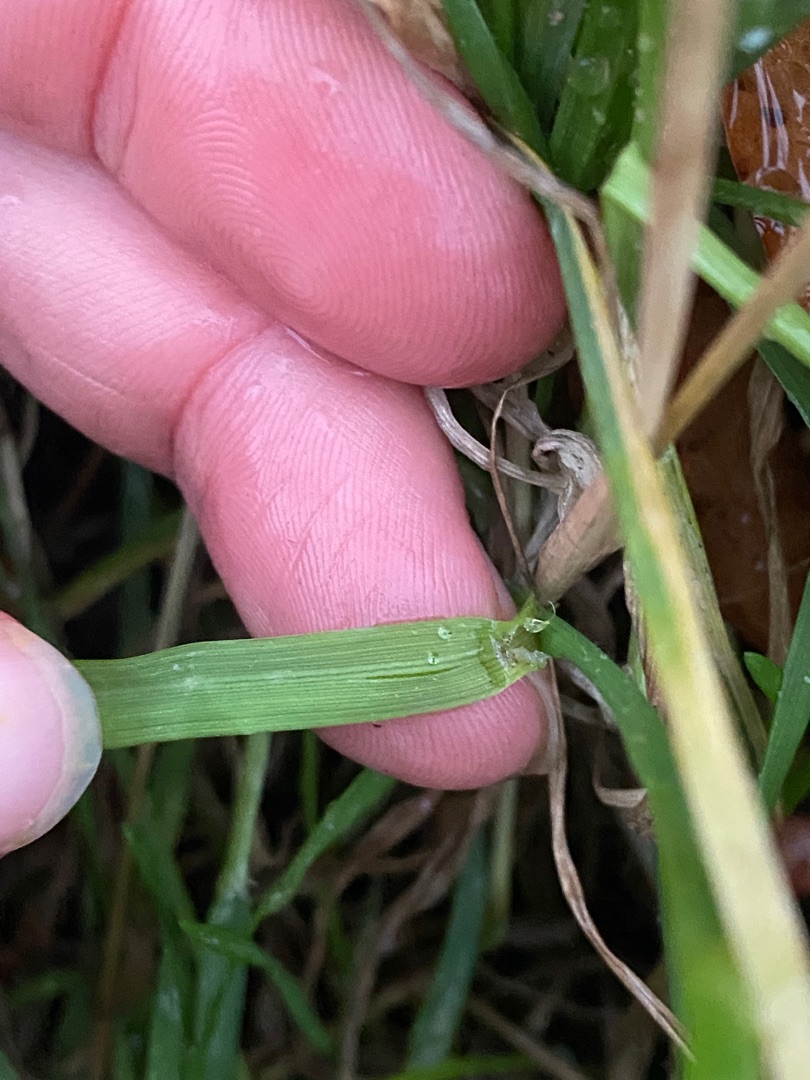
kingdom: Plantae
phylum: Tracheophyta
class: Liliopsida
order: Poales
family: Poaceae
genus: Hordeum
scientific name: Hordeum murinum
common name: Gold byg
